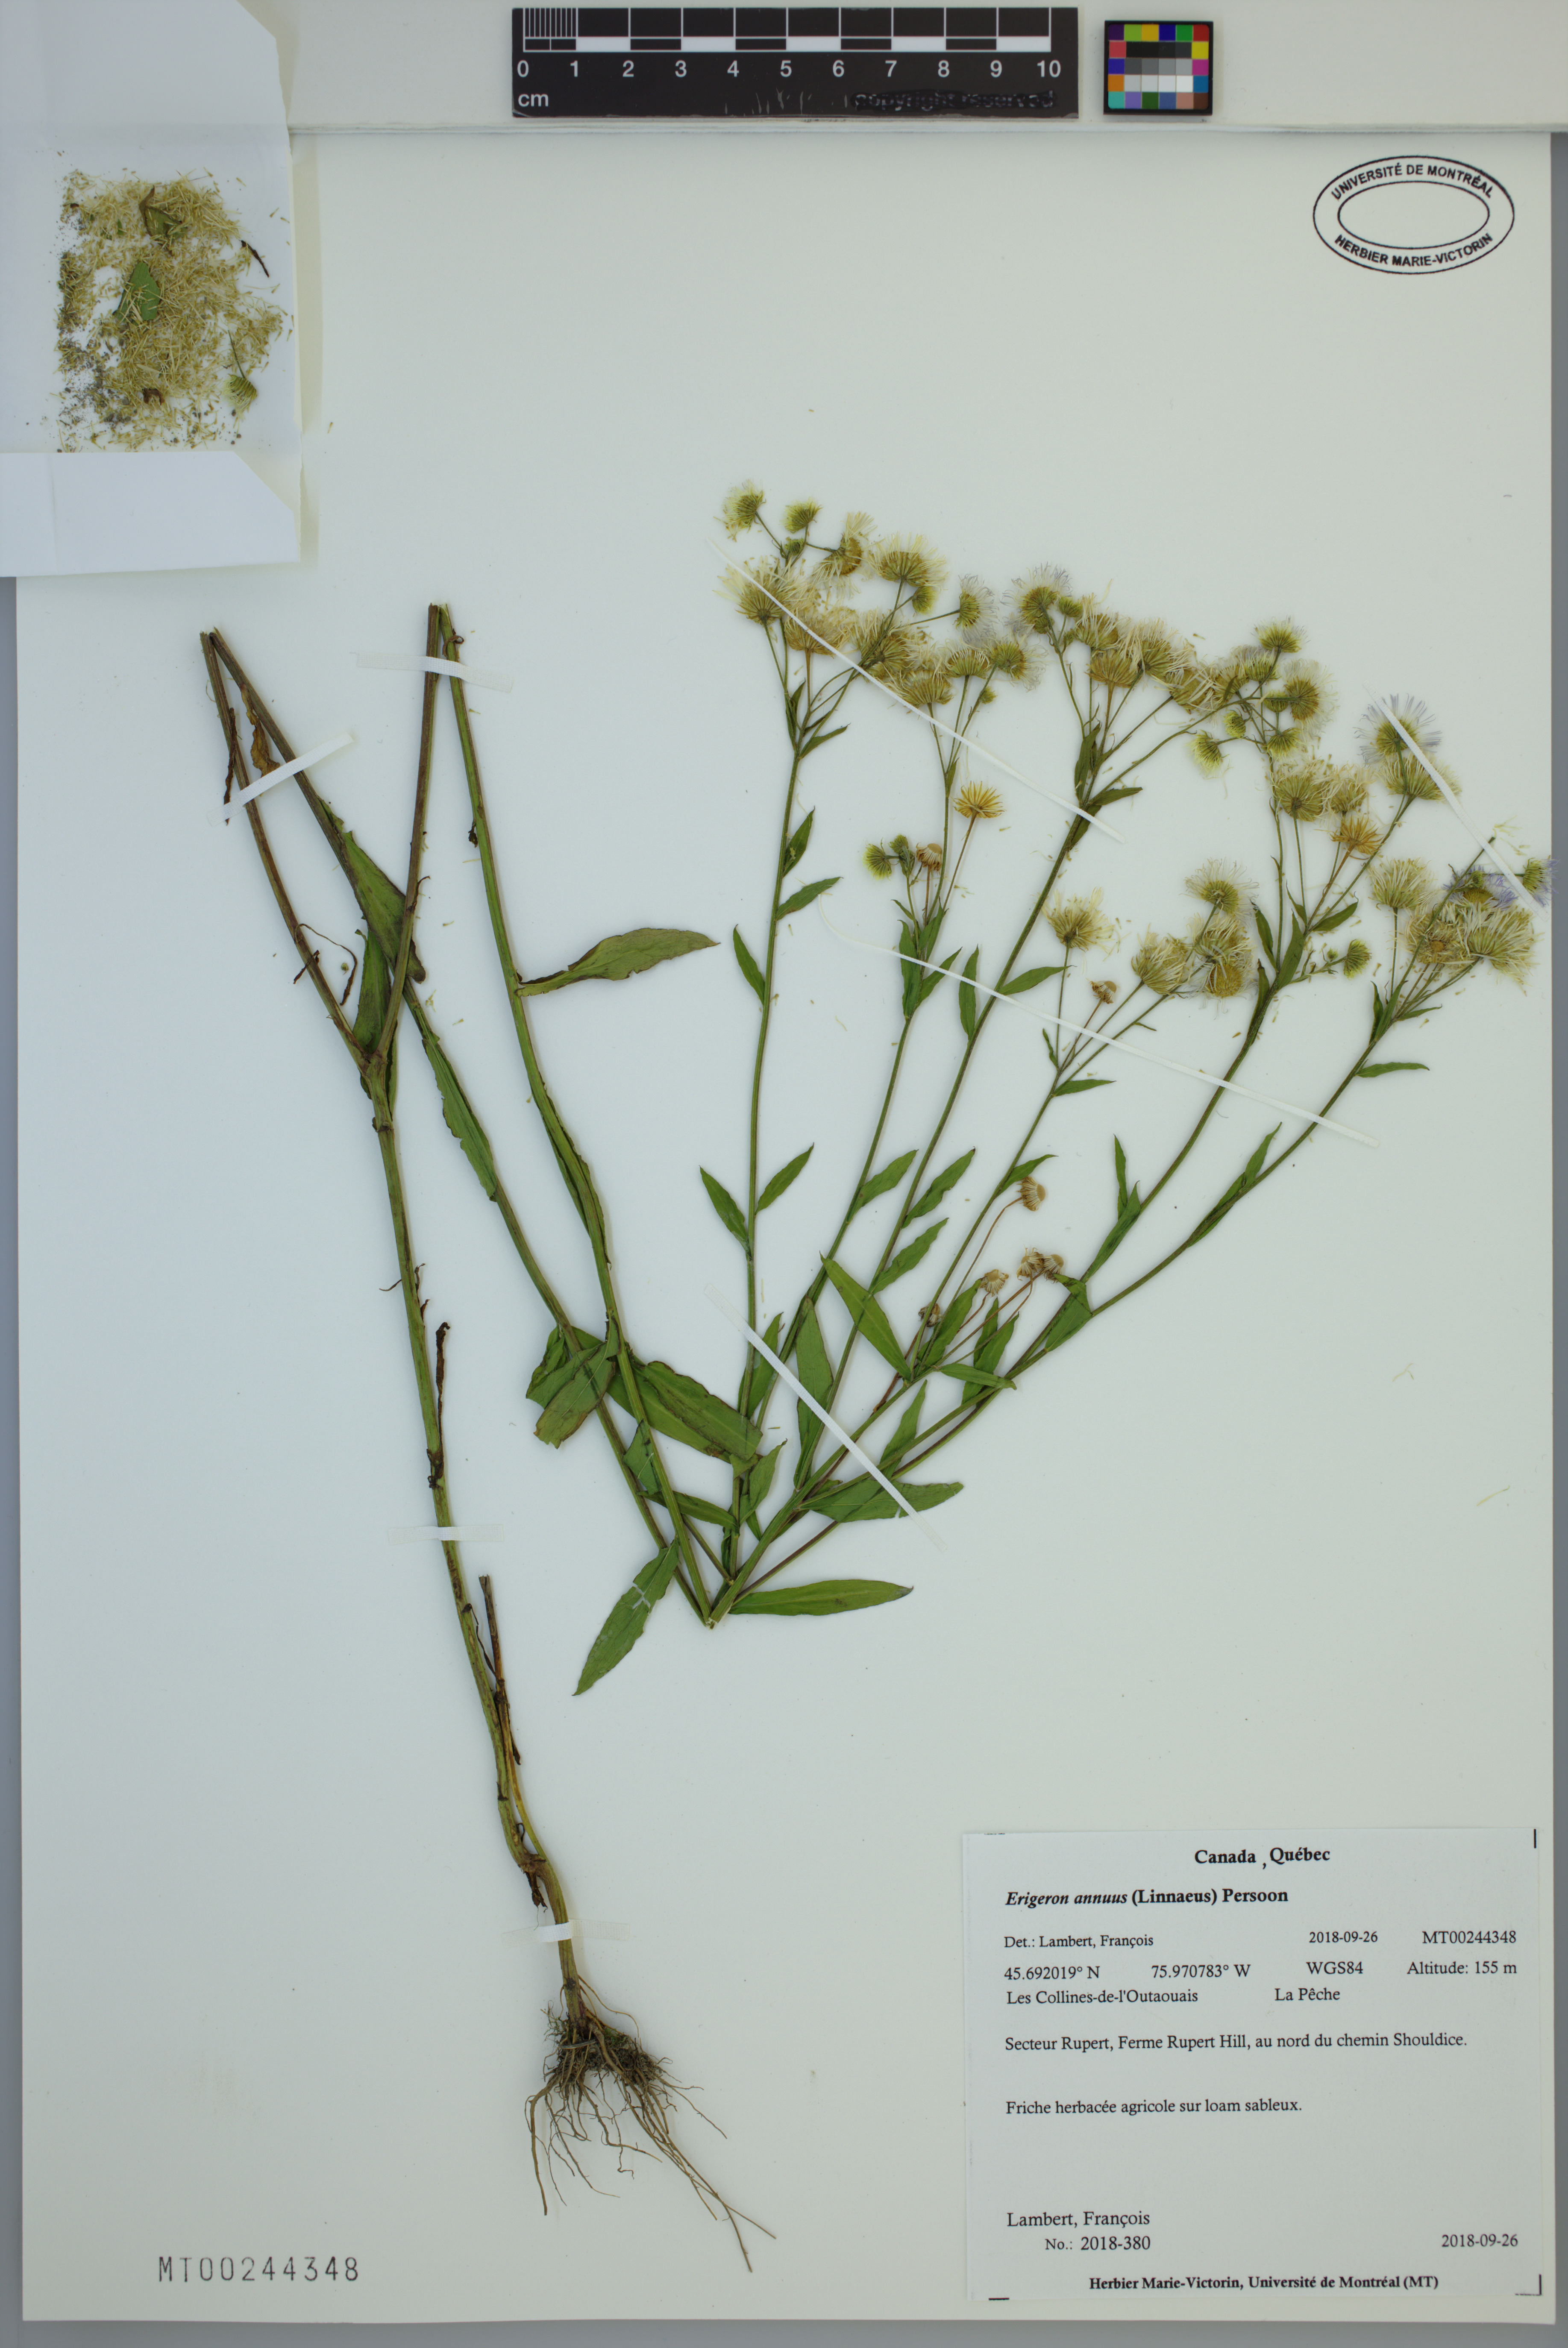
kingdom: Plantae
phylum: Tracheophyta
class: Magnoliopsida
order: Asterales
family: Asteraceae
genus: Erigeron
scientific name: Erigeron annuus
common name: Tall fleabane
